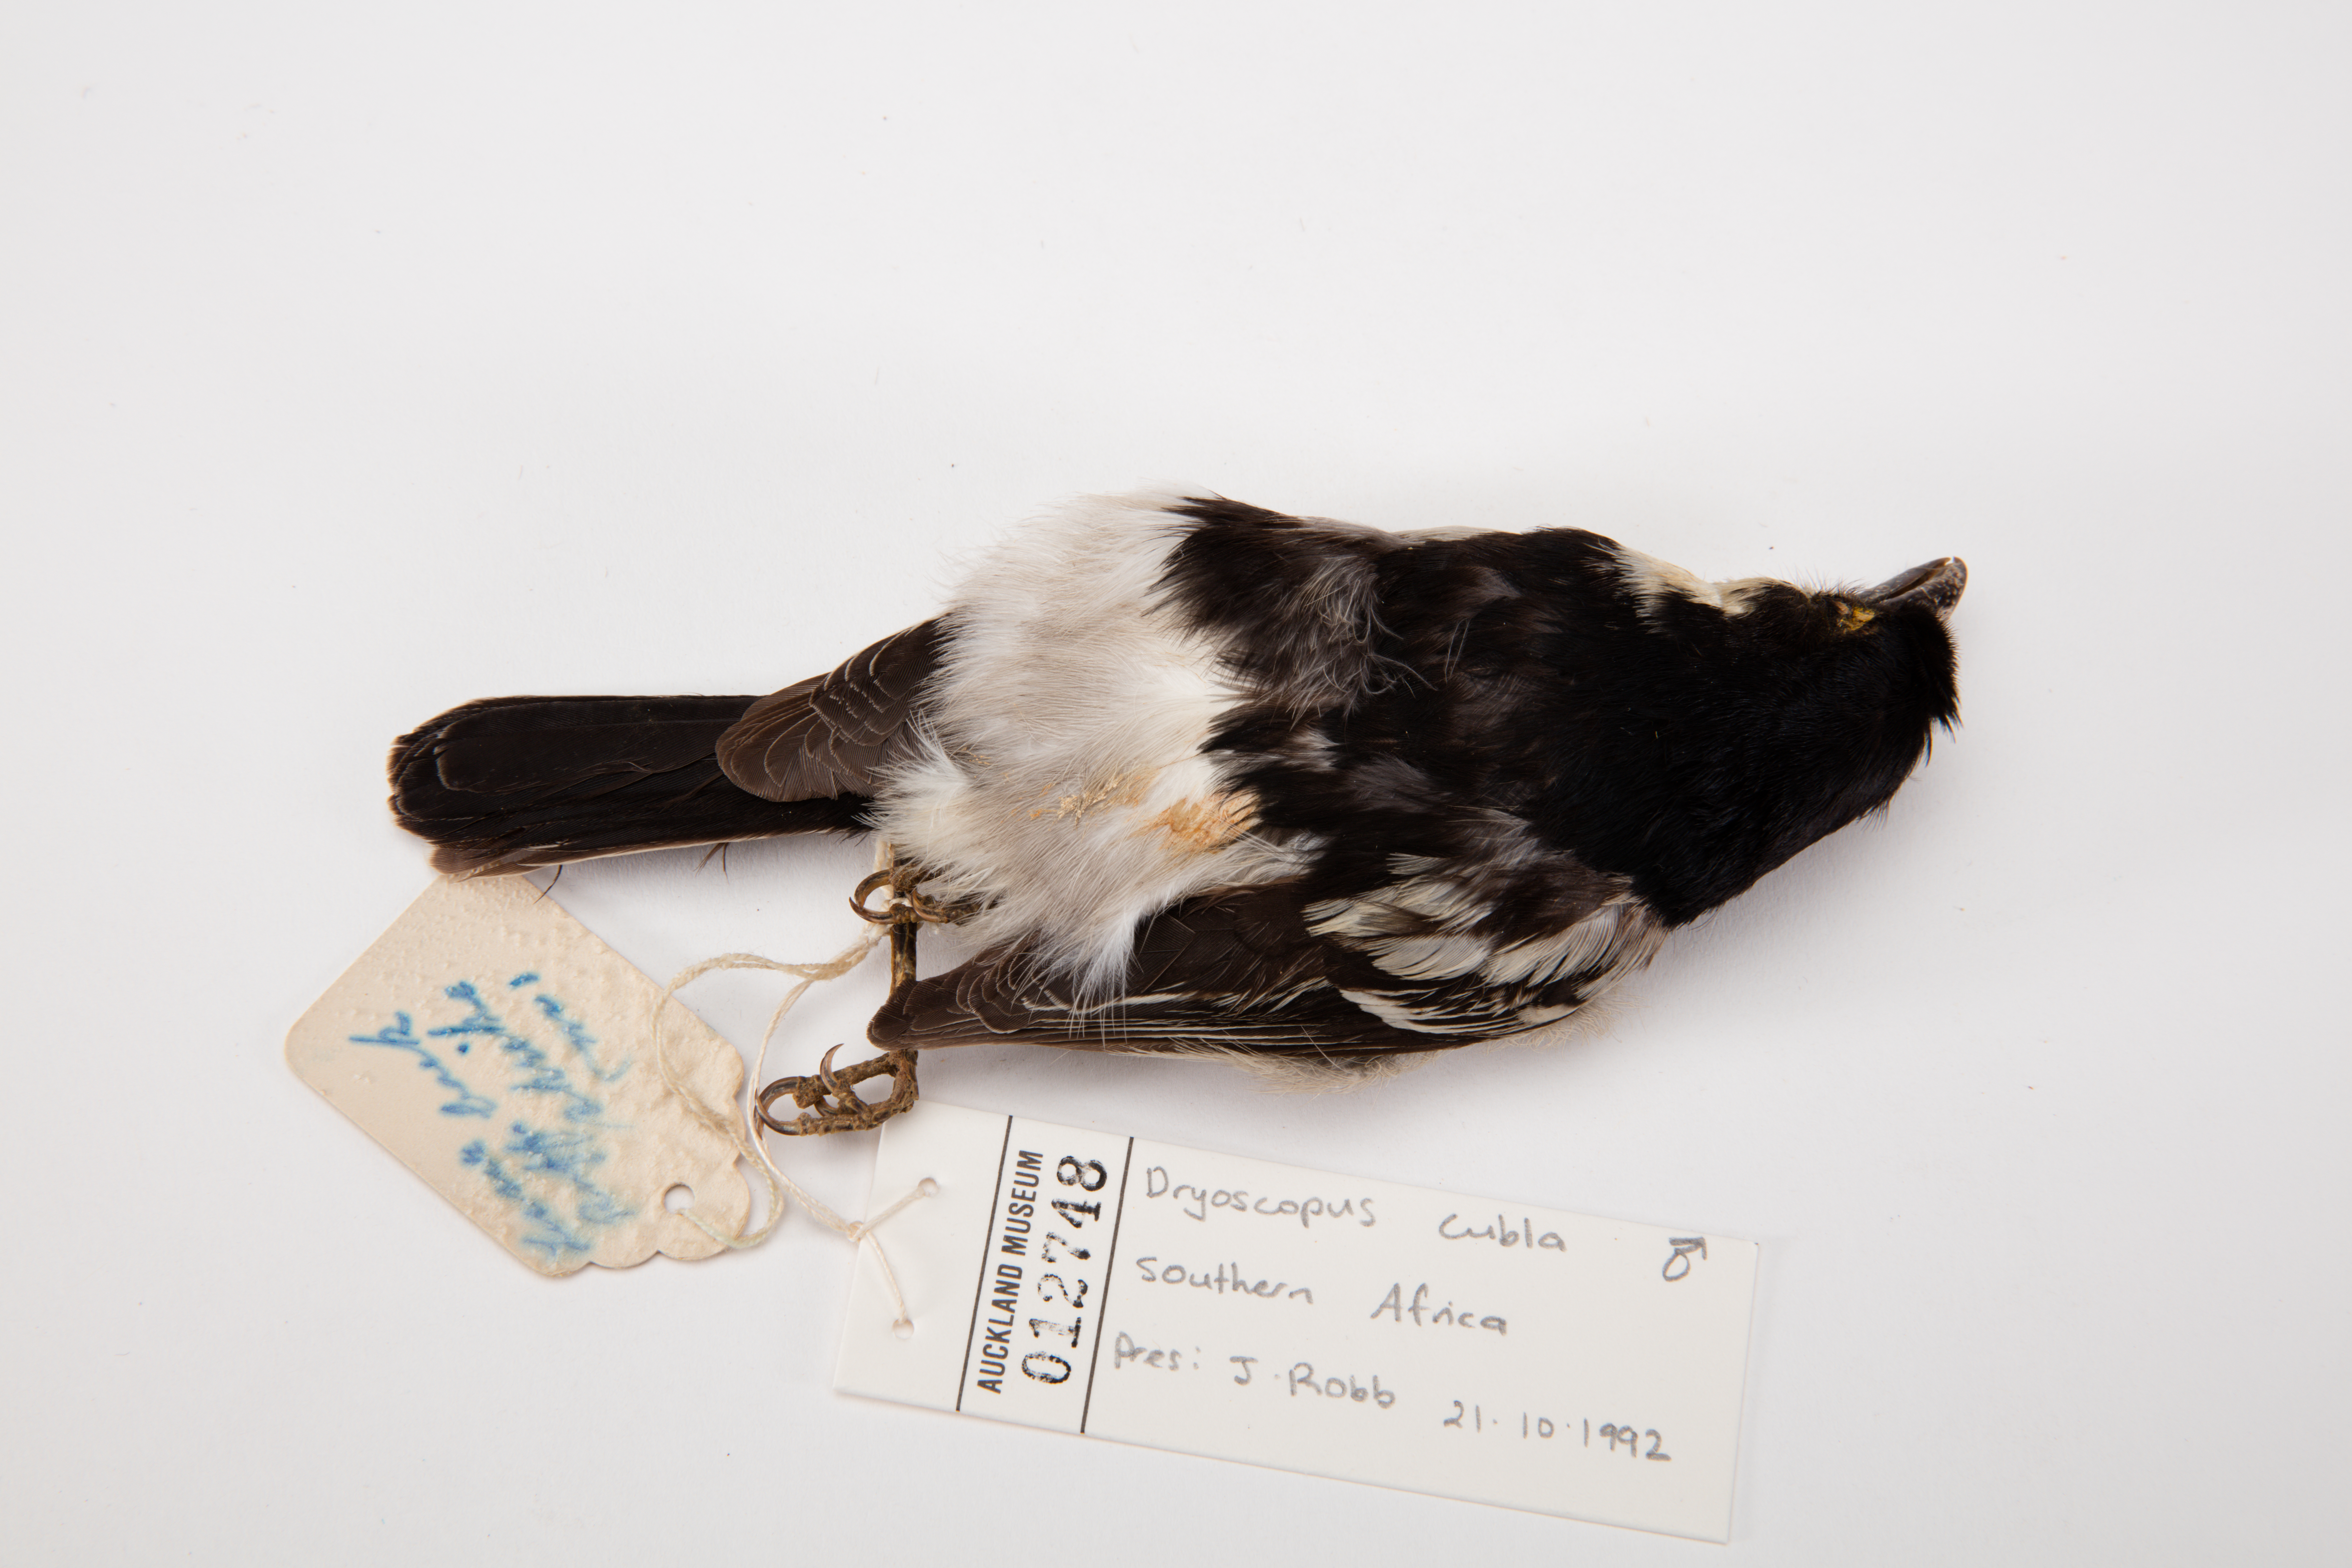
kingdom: Animalia
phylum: Chordata
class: Aves
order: Passeriformes
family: Malaconotidae
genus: Dryoscopus
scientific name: Dryoscopus cubla
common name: Black-backed puffback
